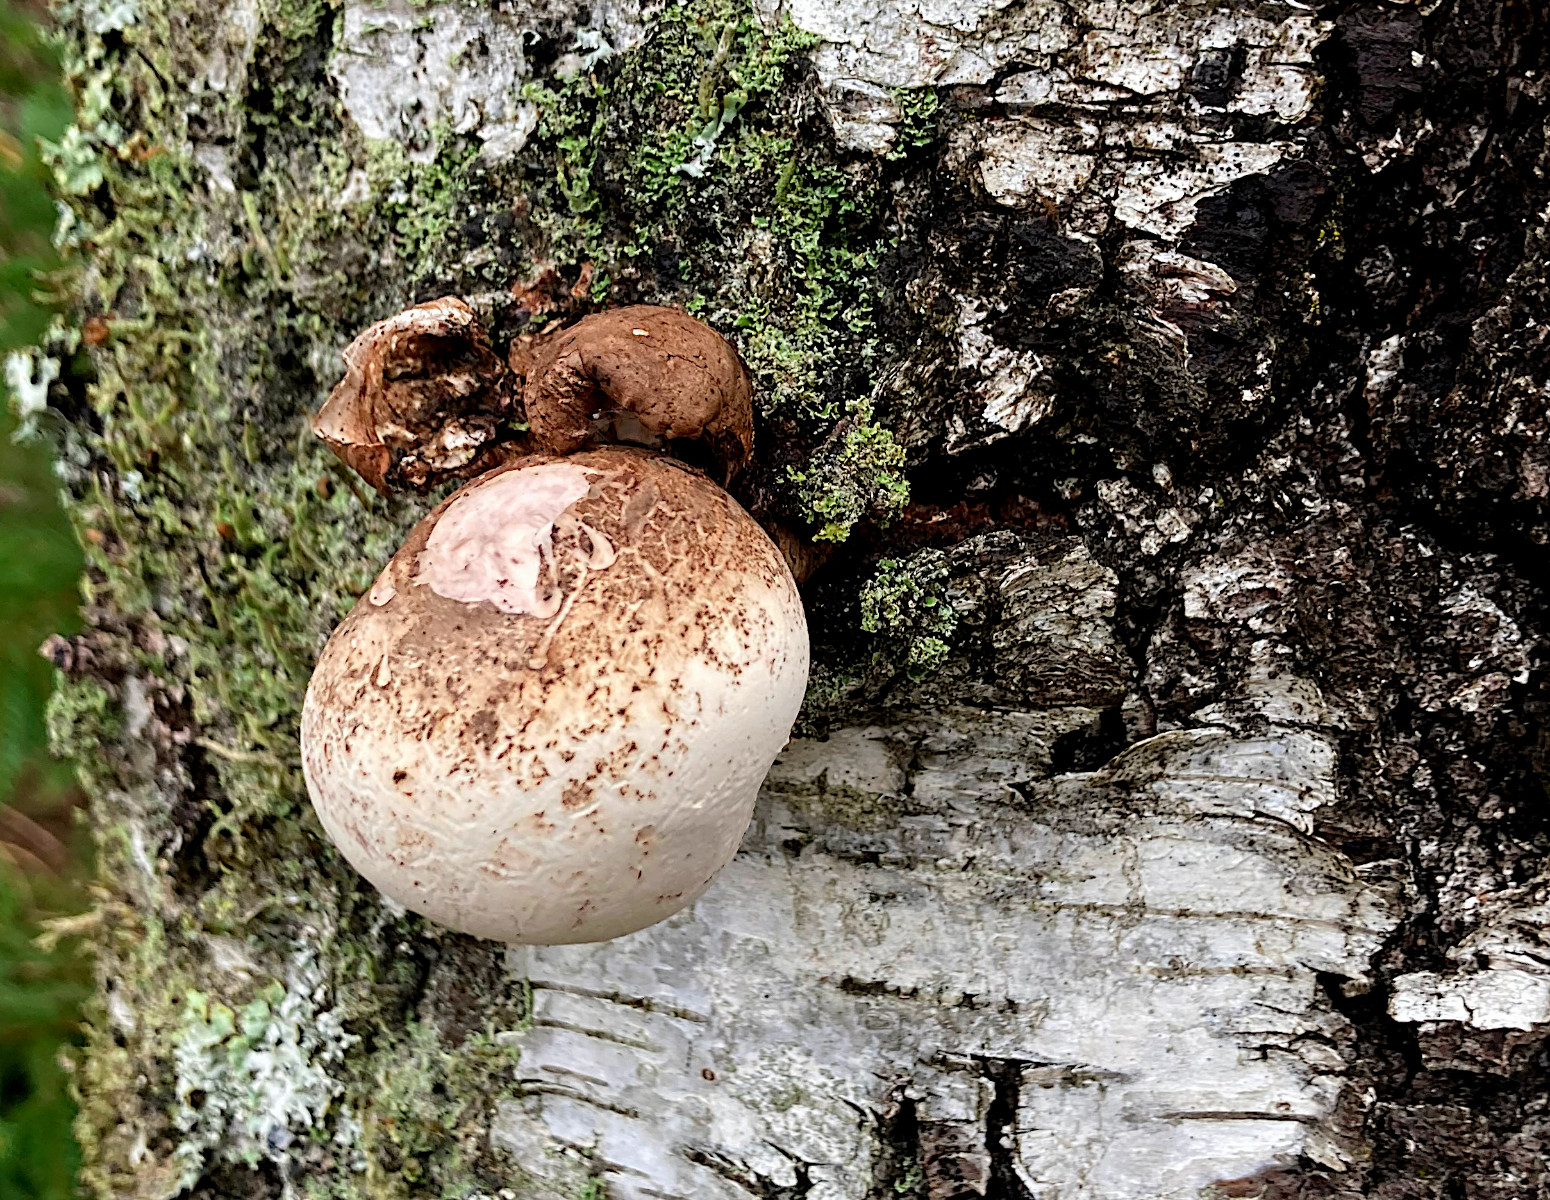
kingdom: Fungi
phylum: Basidiomycota
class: Agaricomycetes
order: Polyporales
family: Fomitopsidaceae
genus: Fomitopsis
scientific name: Fomitopsis betulina
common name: birkeporesvamp
